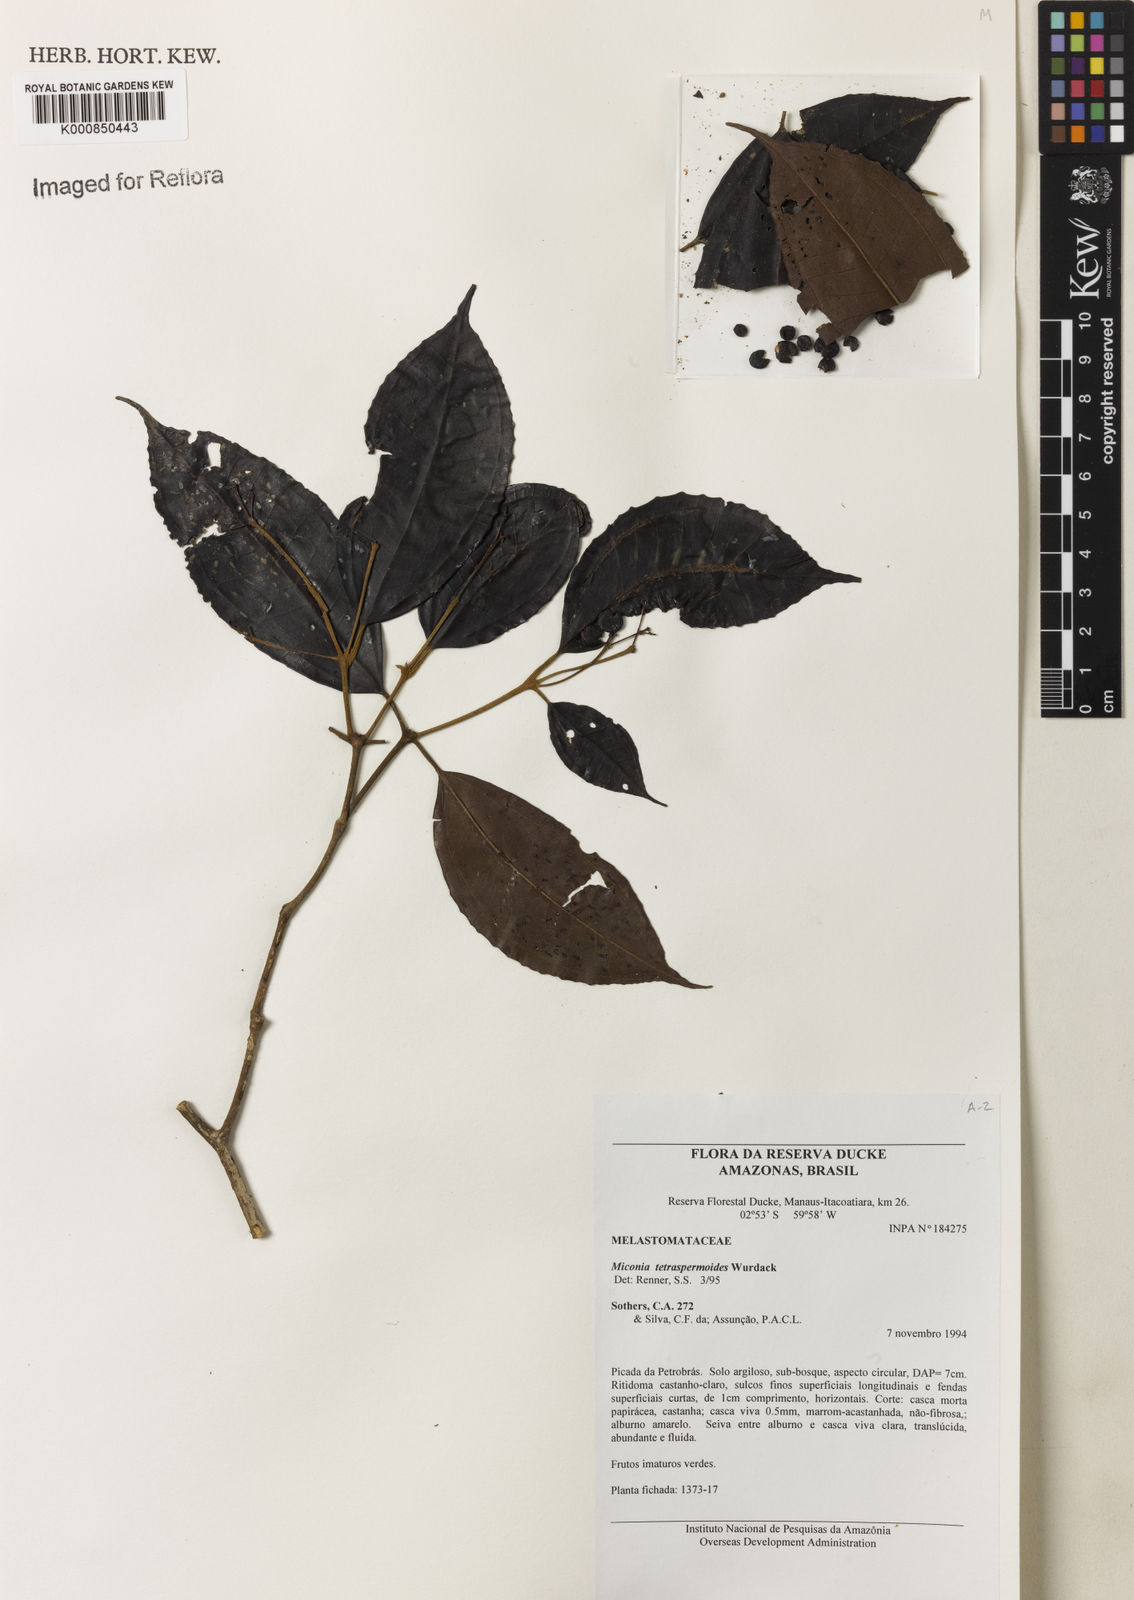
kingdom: Plantae
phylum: Tracheophyta
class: Magnoliopsida
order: Myrtales
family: Melastomataceae
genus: Miconia
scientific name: Miconia tetraspermoides
